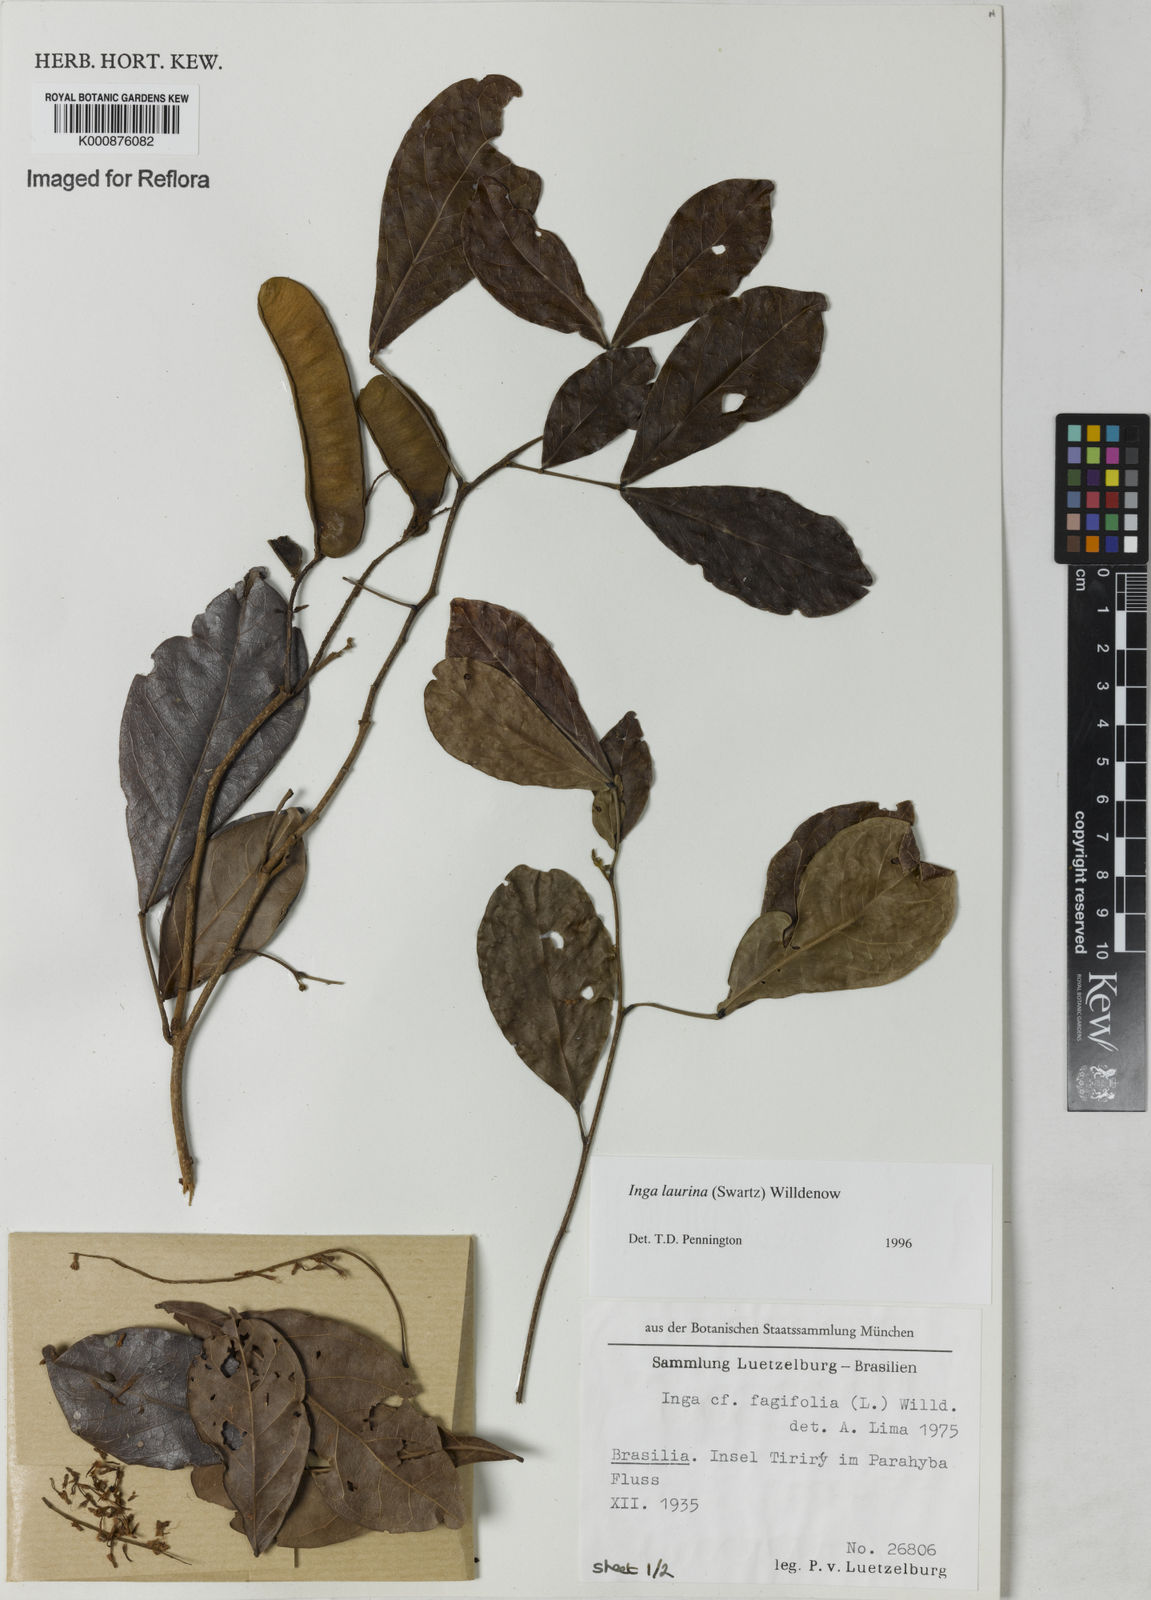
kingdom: Plantae
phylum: Tracheophyta
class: Magnoliopsida
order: Fabales
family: Fabaceae
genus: Inga
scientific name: Inga laurina
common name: Red wood
